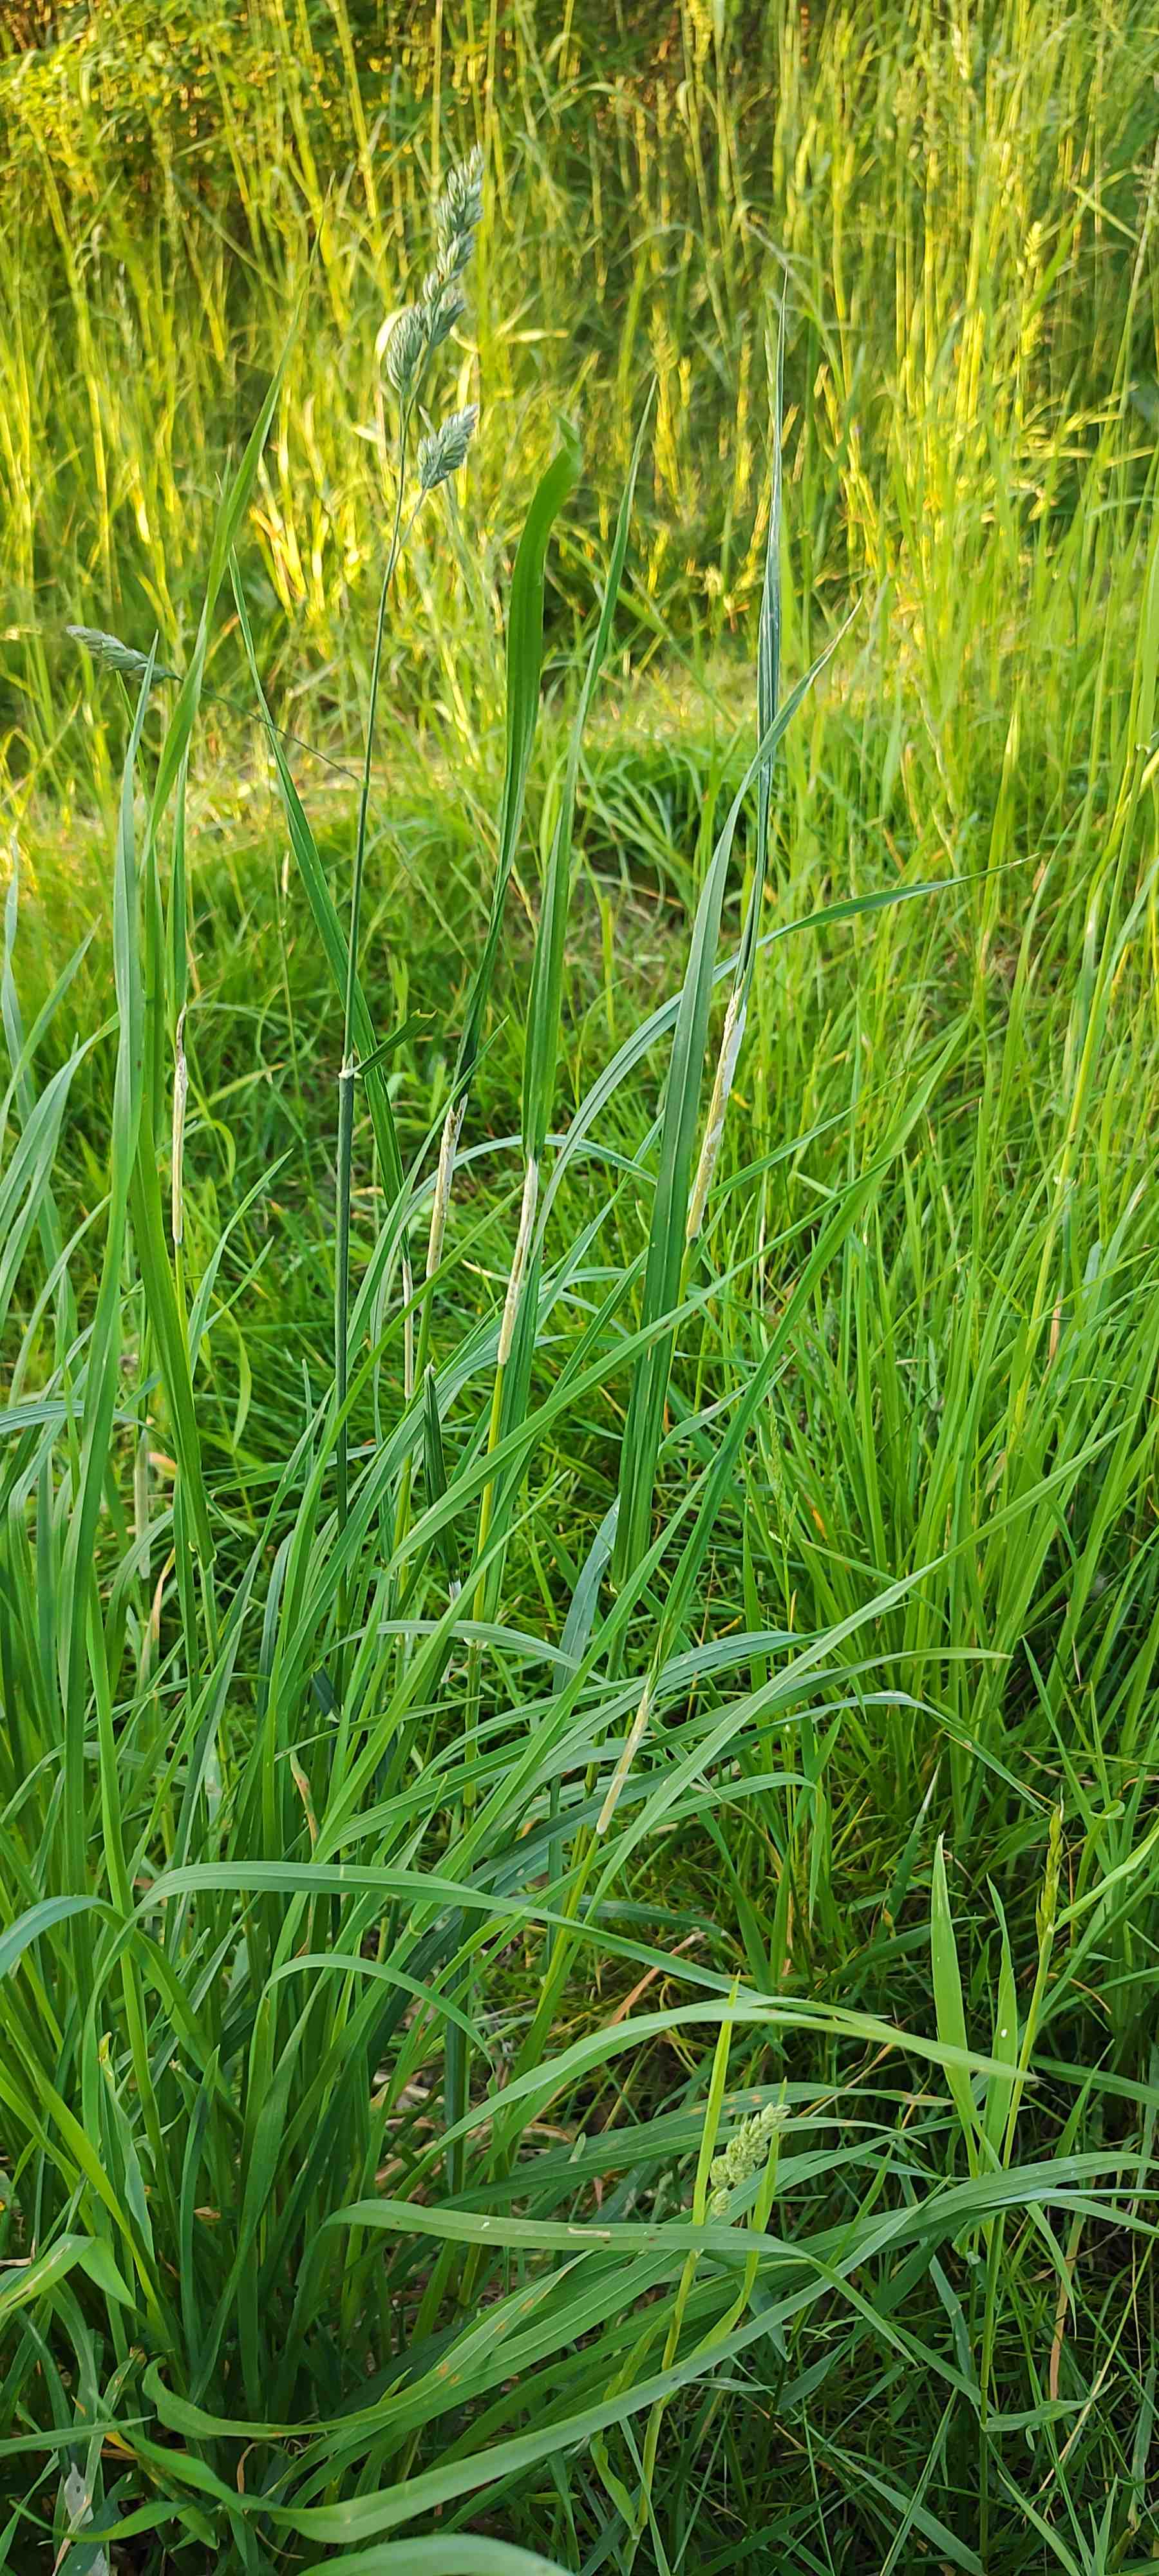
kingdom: Fungi
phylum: Ascomycota
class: Sordariomycetes
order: Hypocreales
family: Clavicipitaceae
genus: Epichloe
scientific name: Epichloe typhina
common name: almindelig kernerør
